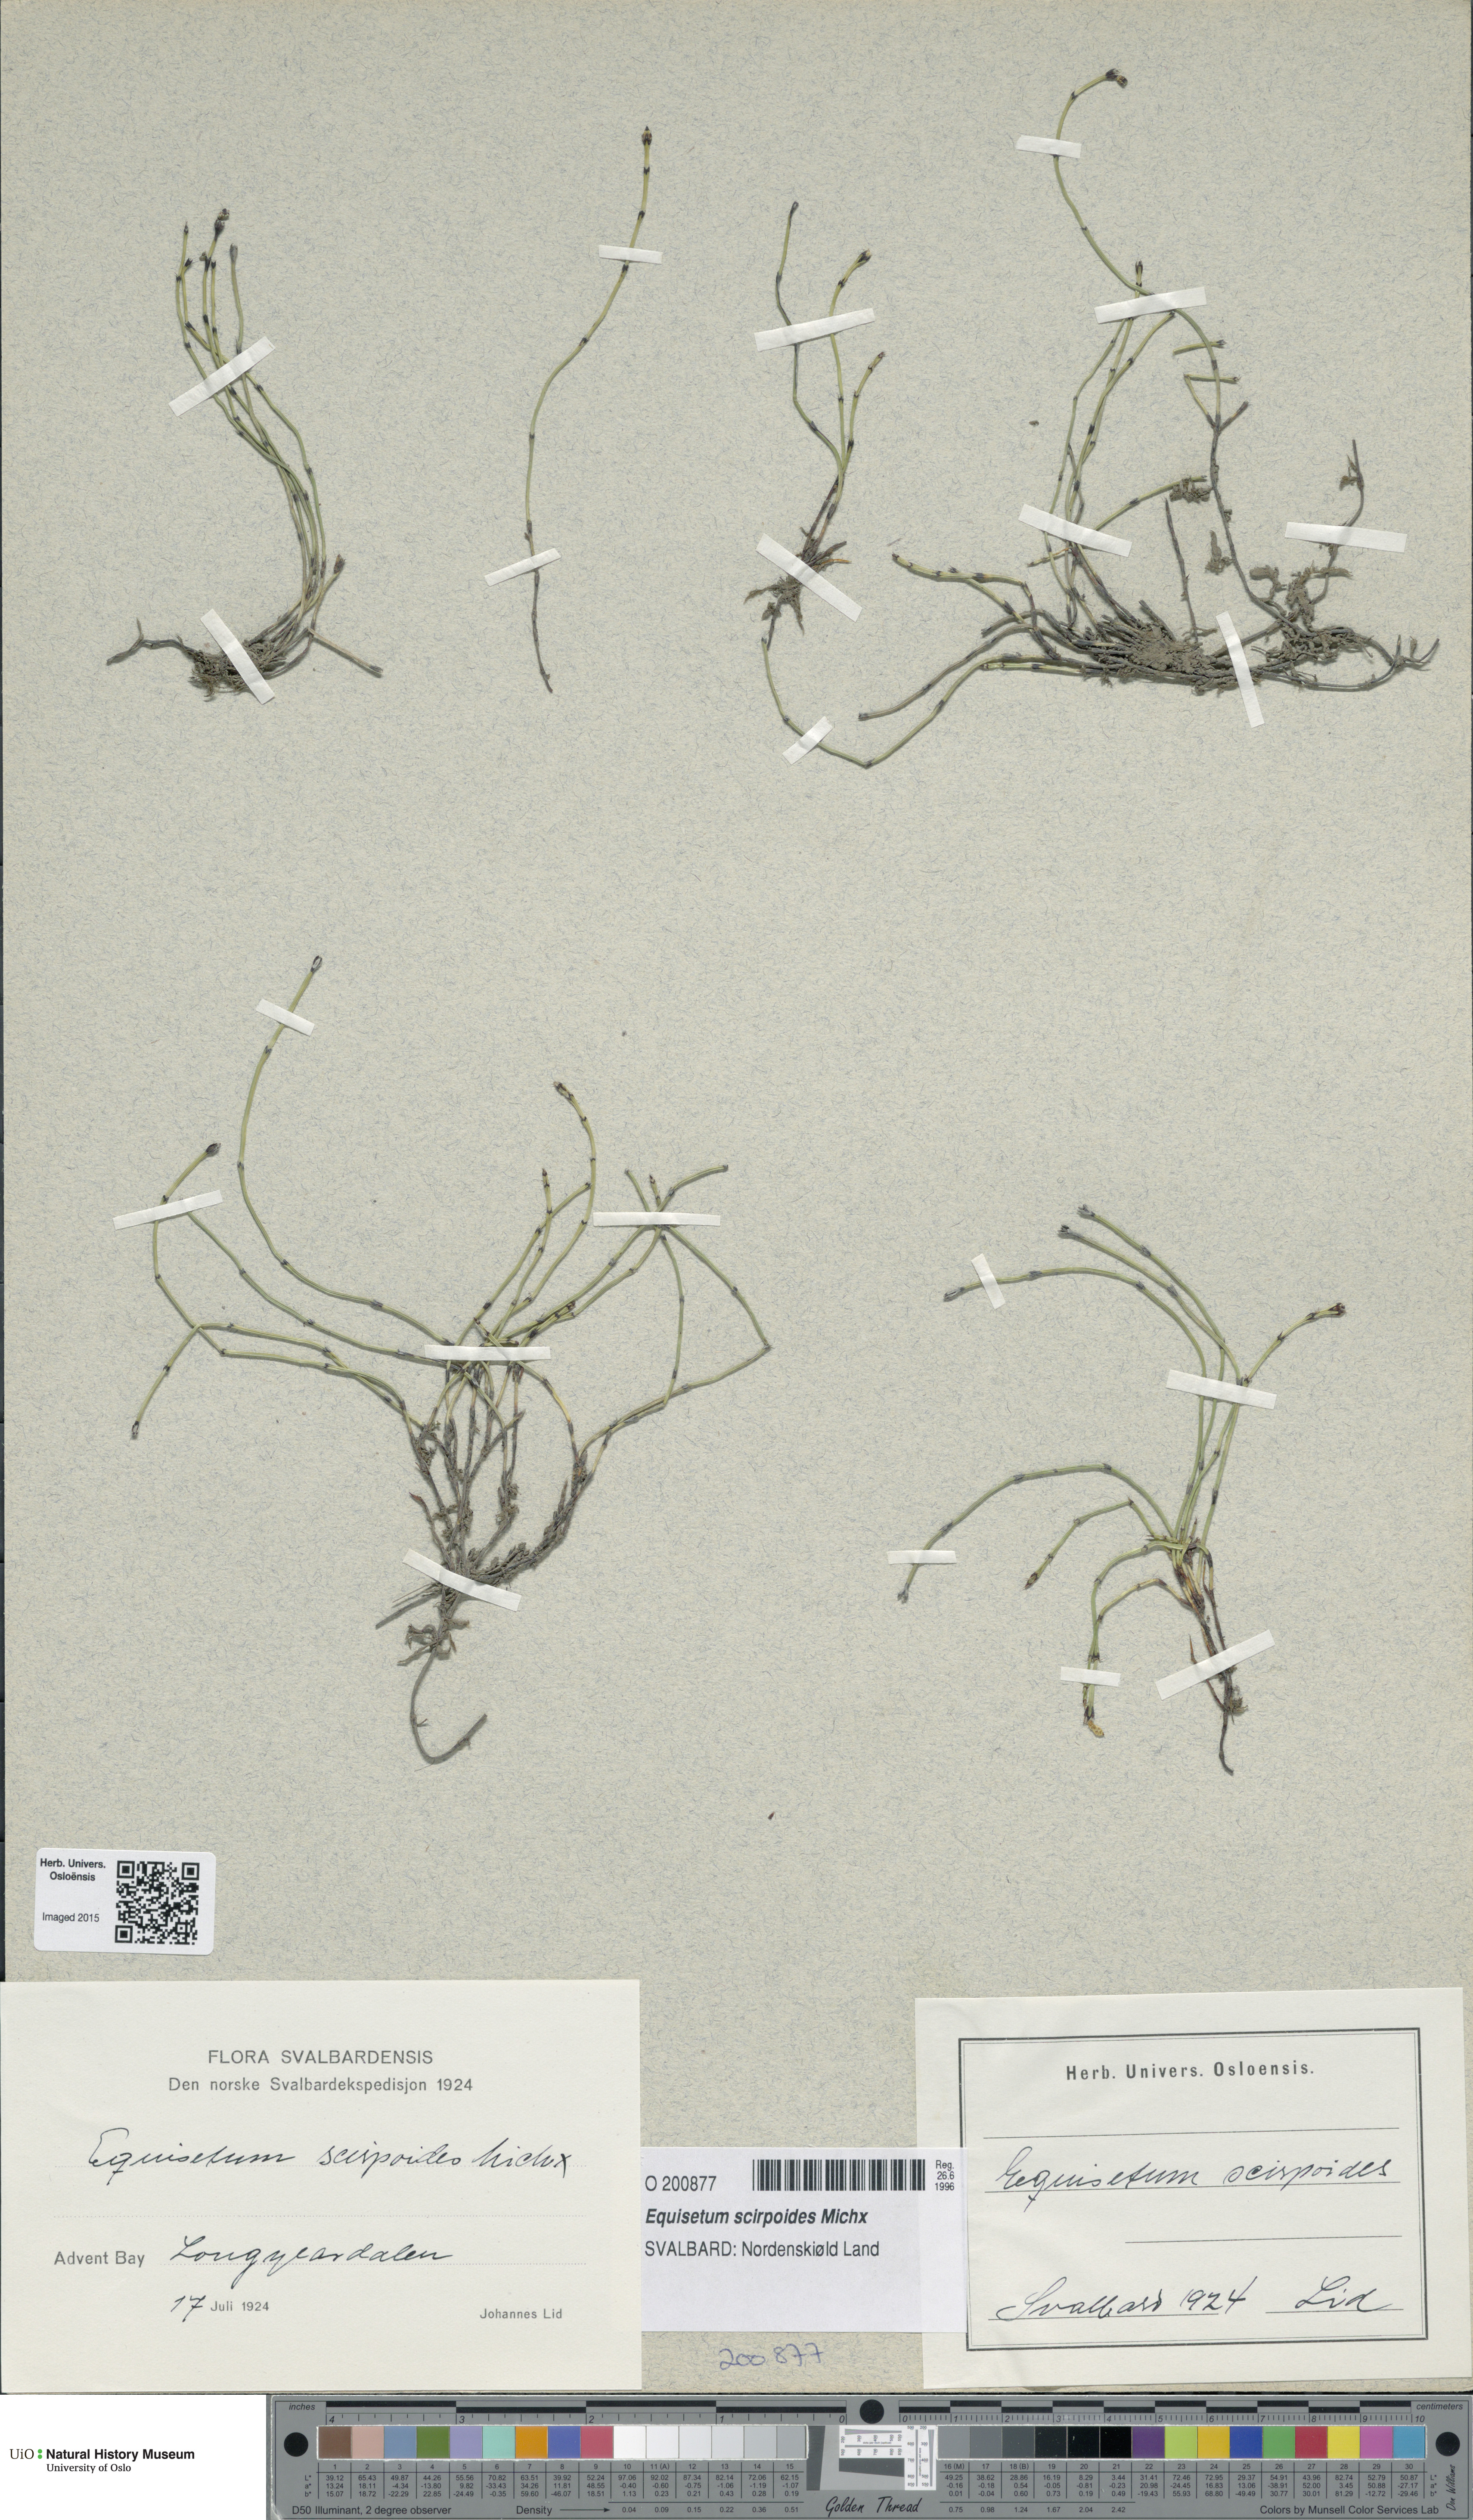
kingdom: Plantae
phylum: Tracheophyta
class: Polypodiopsida
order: Equisetales
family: Equisetaceae
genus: Equisetum
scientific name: Equisetum scirpoides
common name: Delicate horsetail
